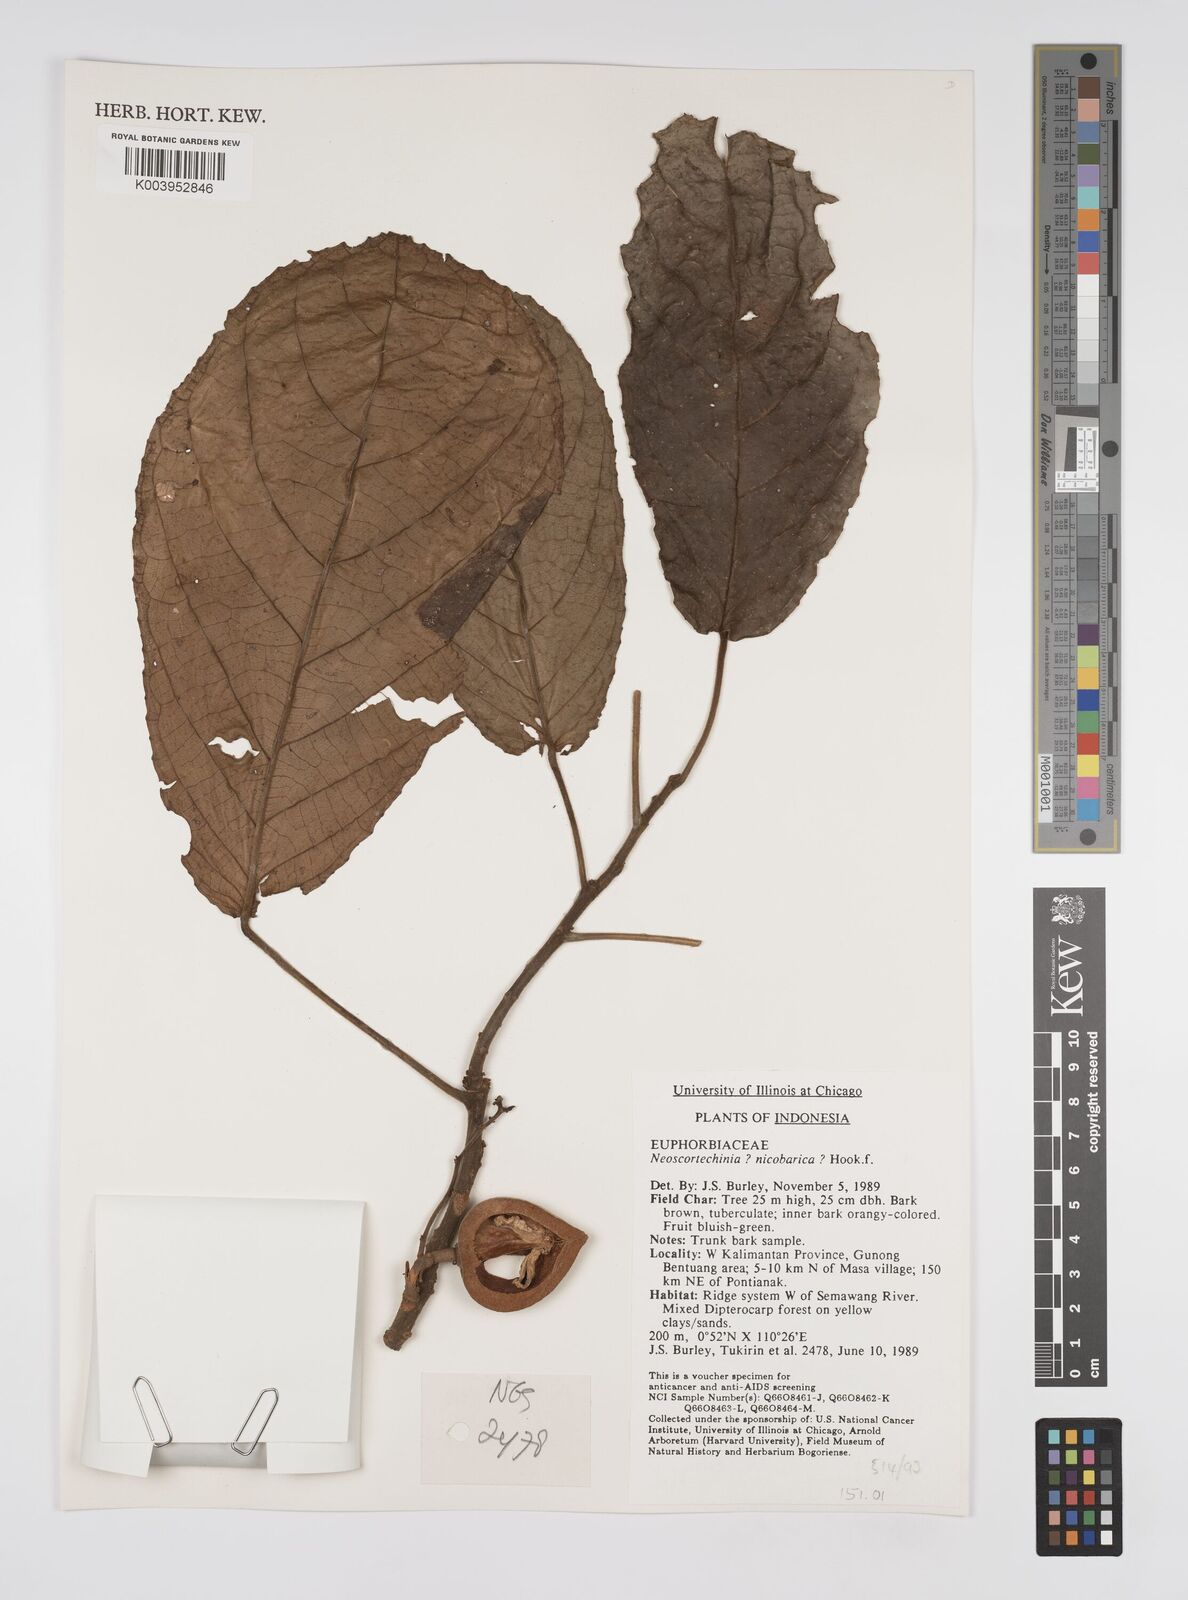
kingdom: Plantae
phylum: Tracheophyta
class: Magnoliopsida
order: Malpighiales
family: Euphorbiaceae
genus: Neoscortechinia
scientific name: Neoscortechinia nicobarica
